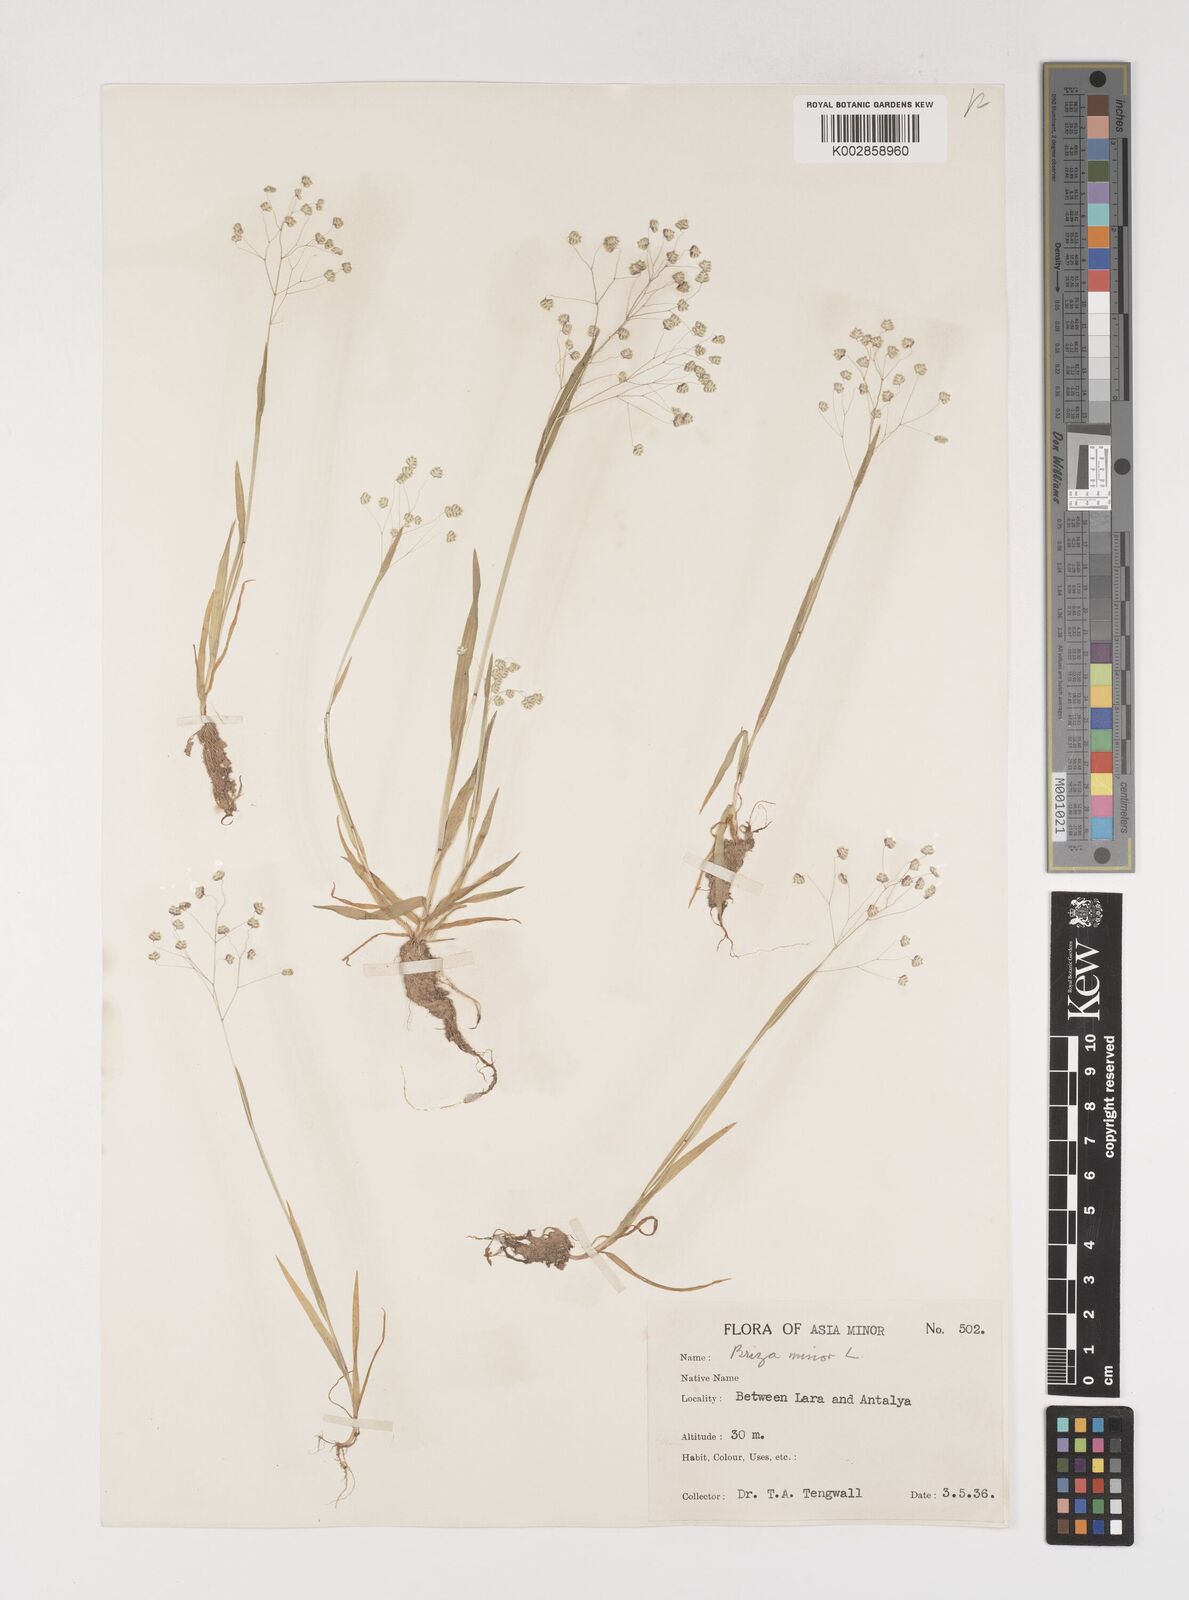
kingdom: Plantae
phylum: Tracheophyta
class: Liliopsida
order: Poales
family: Poaceae
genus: Briza
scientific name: Briza minor
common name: Lesser quaking-grass
